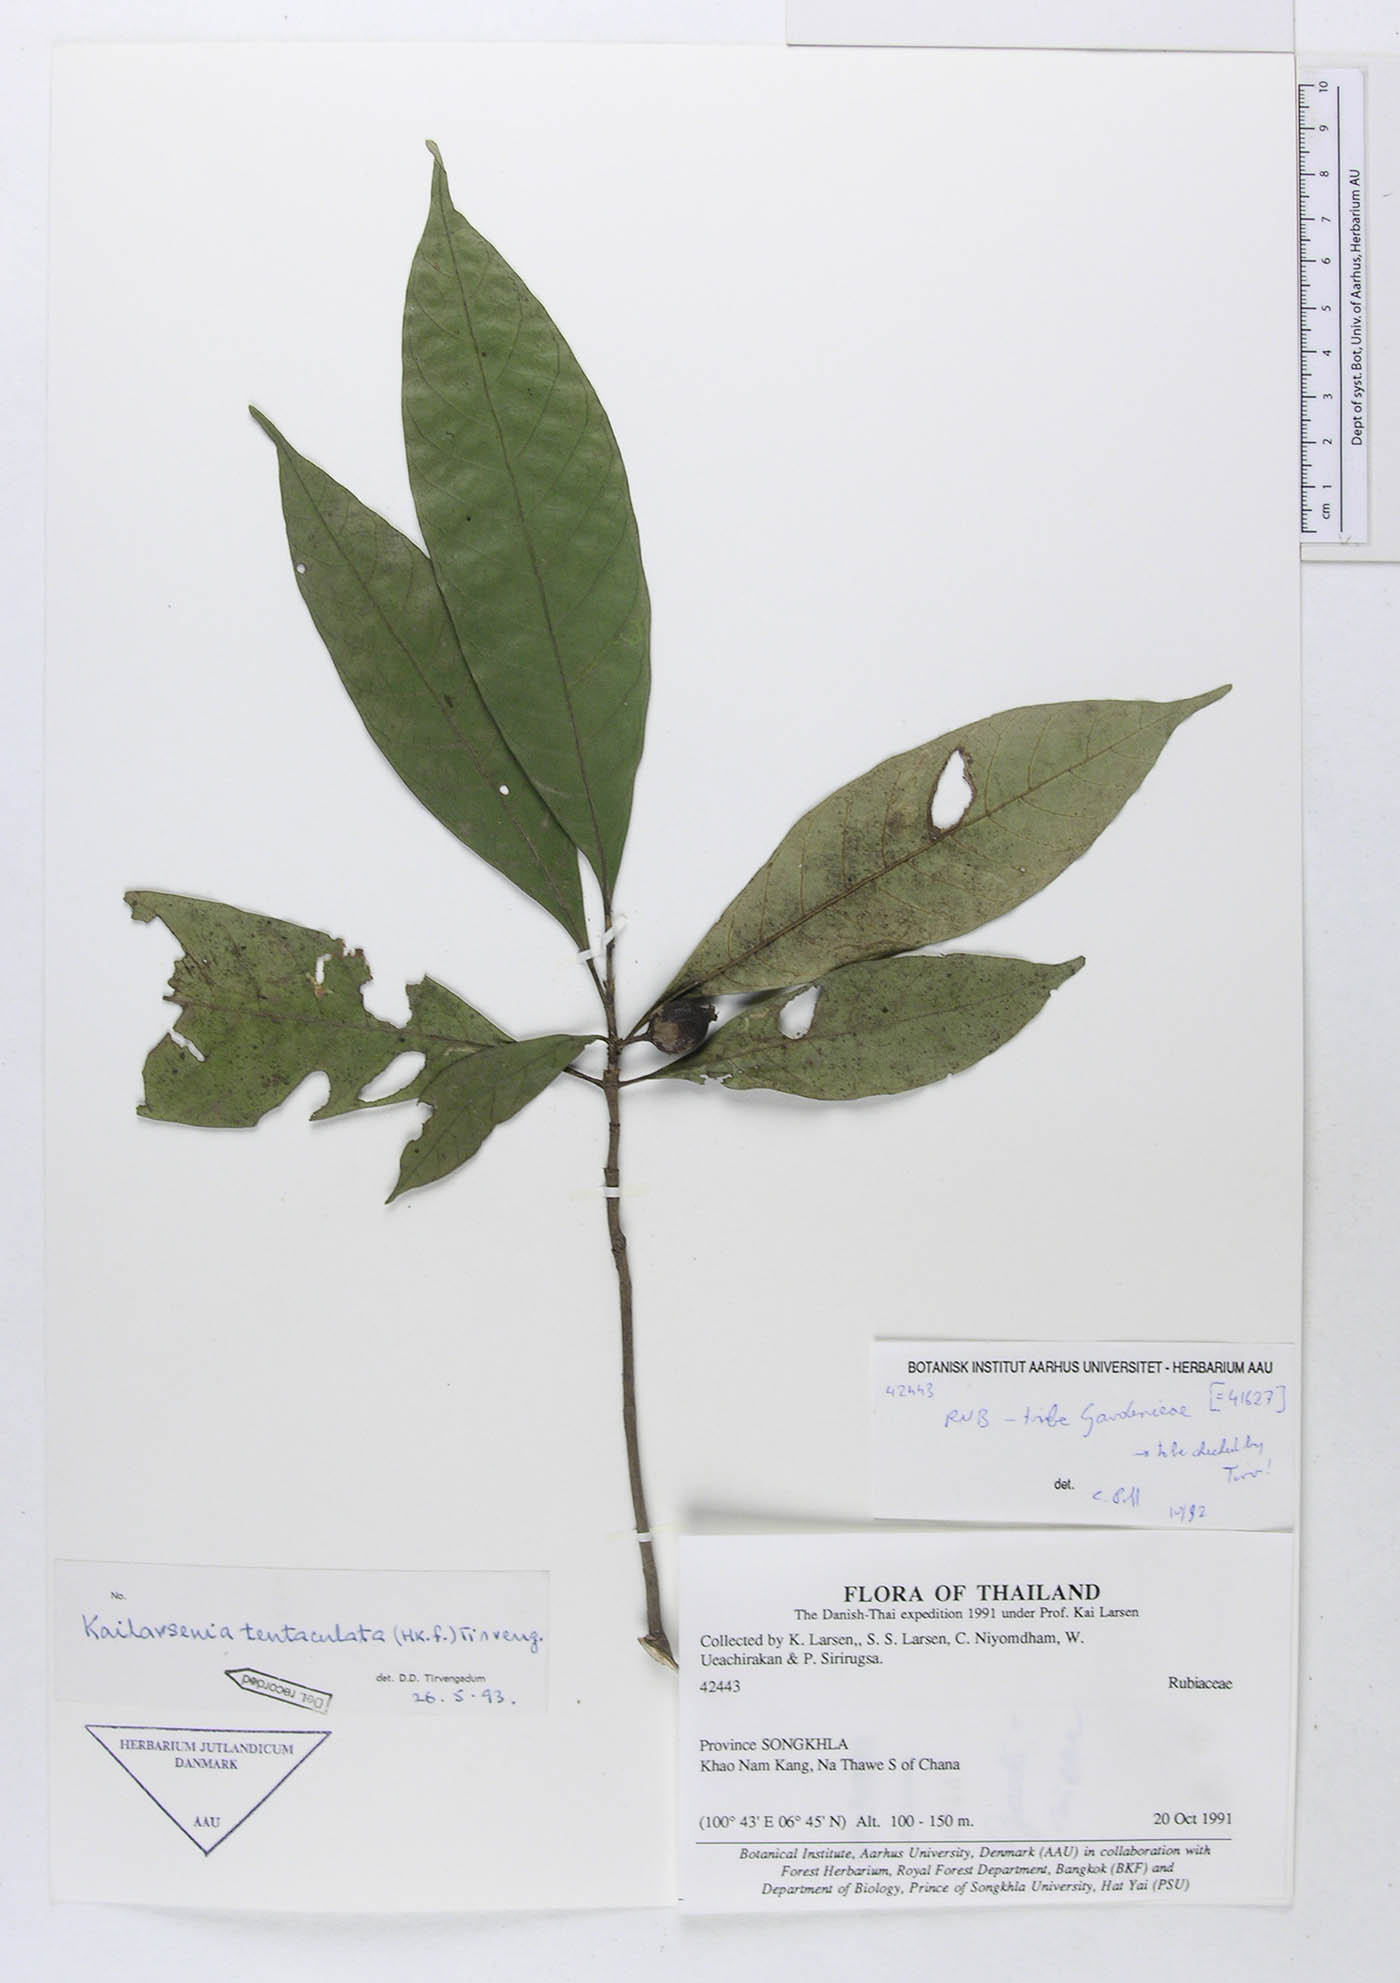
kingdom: Plantae
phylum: Tracheophyta
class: Magnoliopsida
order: Gentianales
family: Rubiaceae
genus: Kailarsenia
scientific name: Kailarsenia tentaculata
